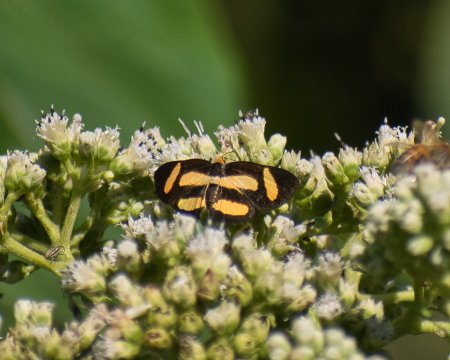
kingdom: Animalia
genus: Symmachia
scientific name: Symmachia tricolor
